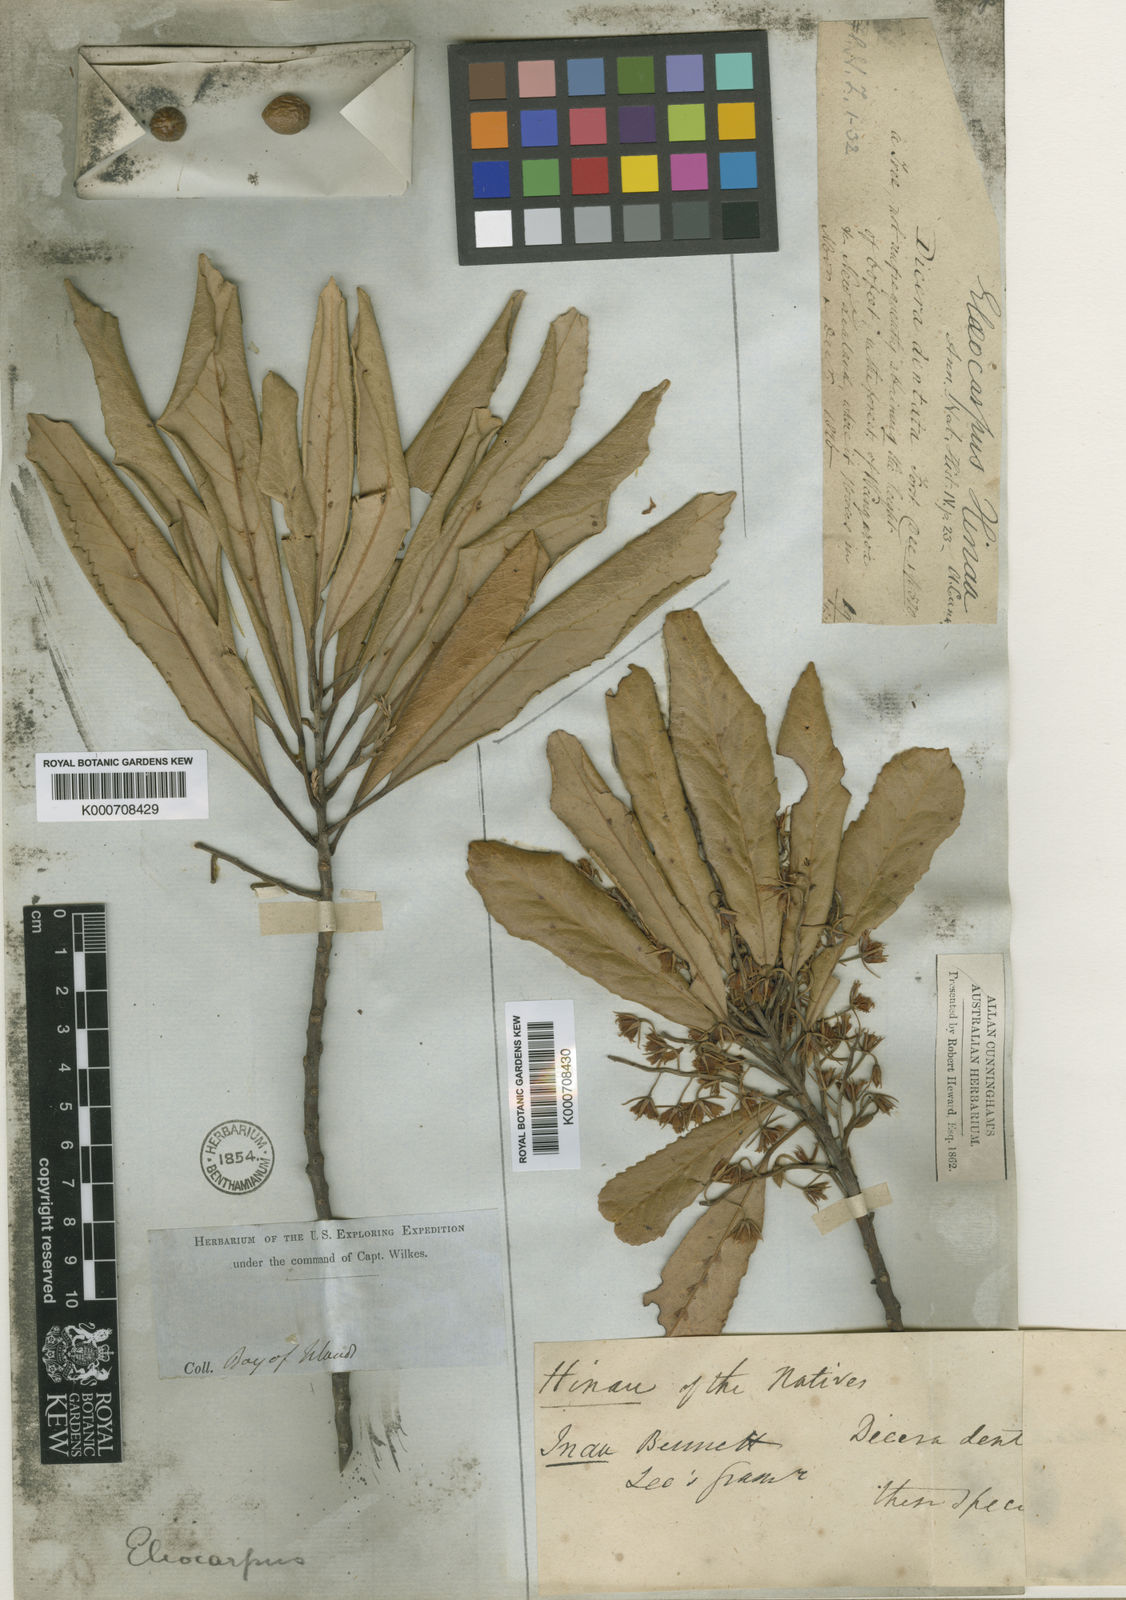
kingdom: Plantae
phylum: Tracheophyta
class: Magnoliopsida
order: Oxalidales
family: Elaeocarpaceae
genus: Elaeocarpus
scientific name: Elaeocarpus pierrei
